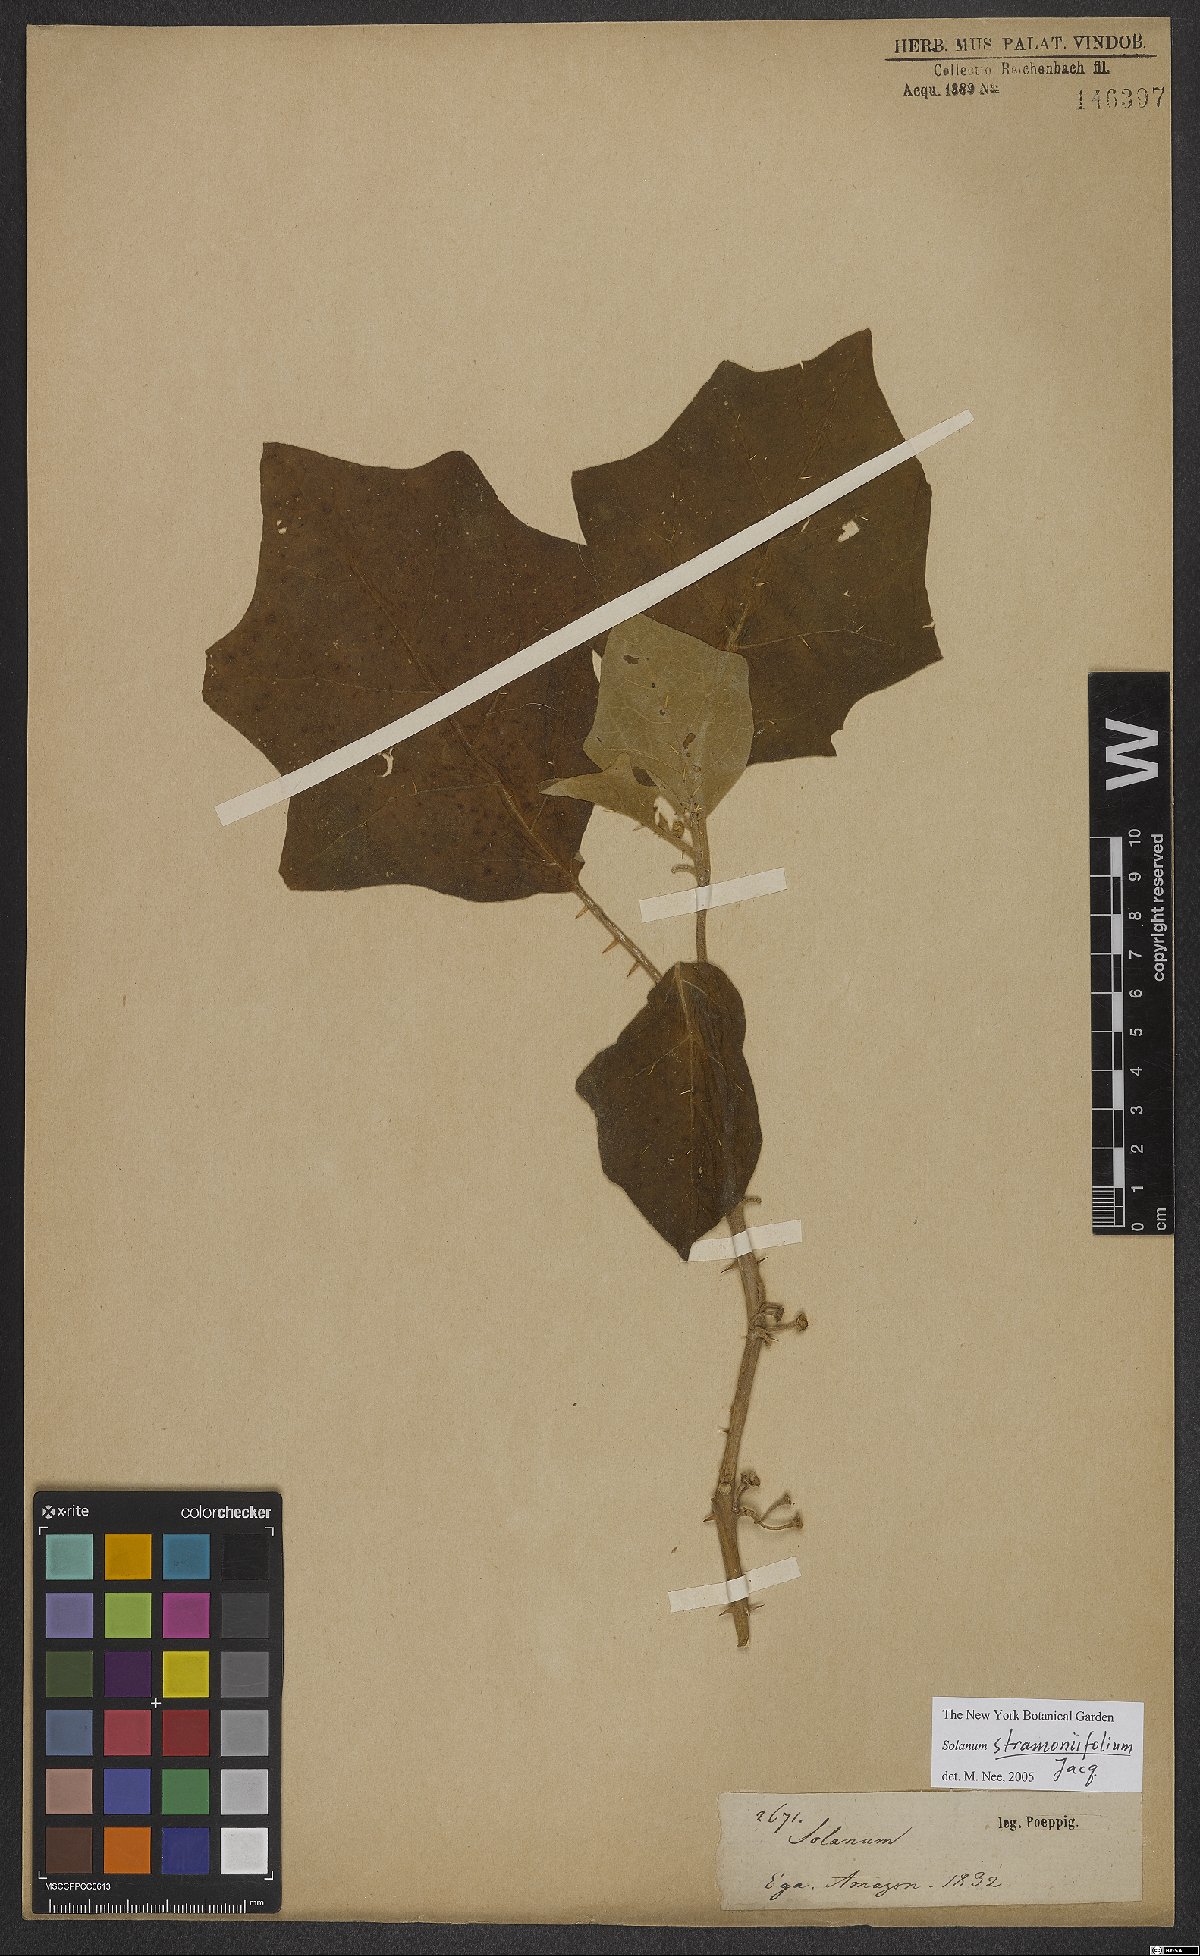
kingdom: Plantae
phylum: Tracheophyta
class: Magnoliopsida
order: Solanales
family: Solanaceae
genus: Solanum
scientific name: Solanum stramonifolium
